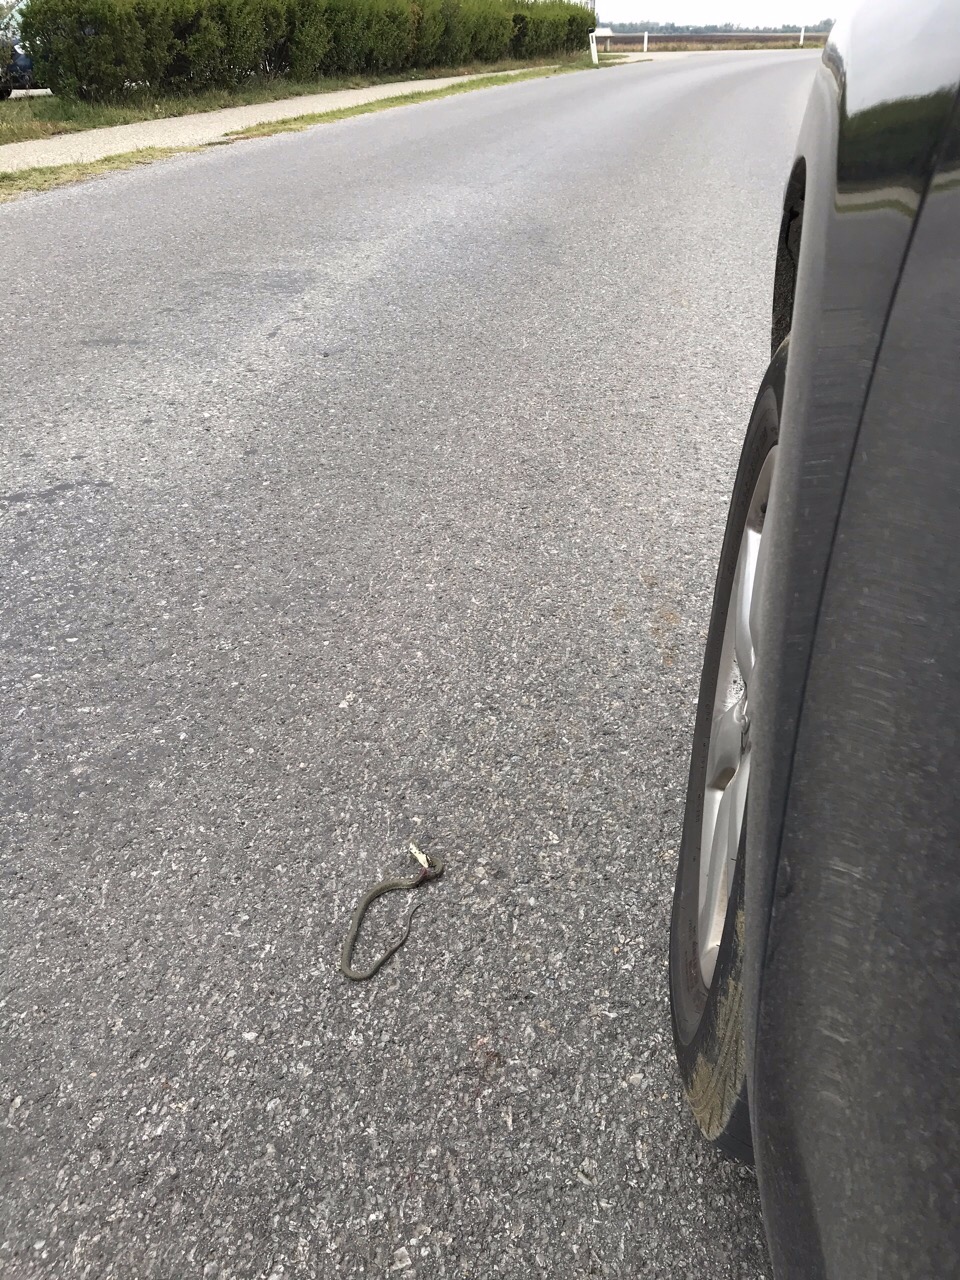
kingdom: Animalia
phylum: Chordata
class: Squamata
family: Colubridae
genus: Natrix
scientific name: Natrix natrix
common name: Grass snake
